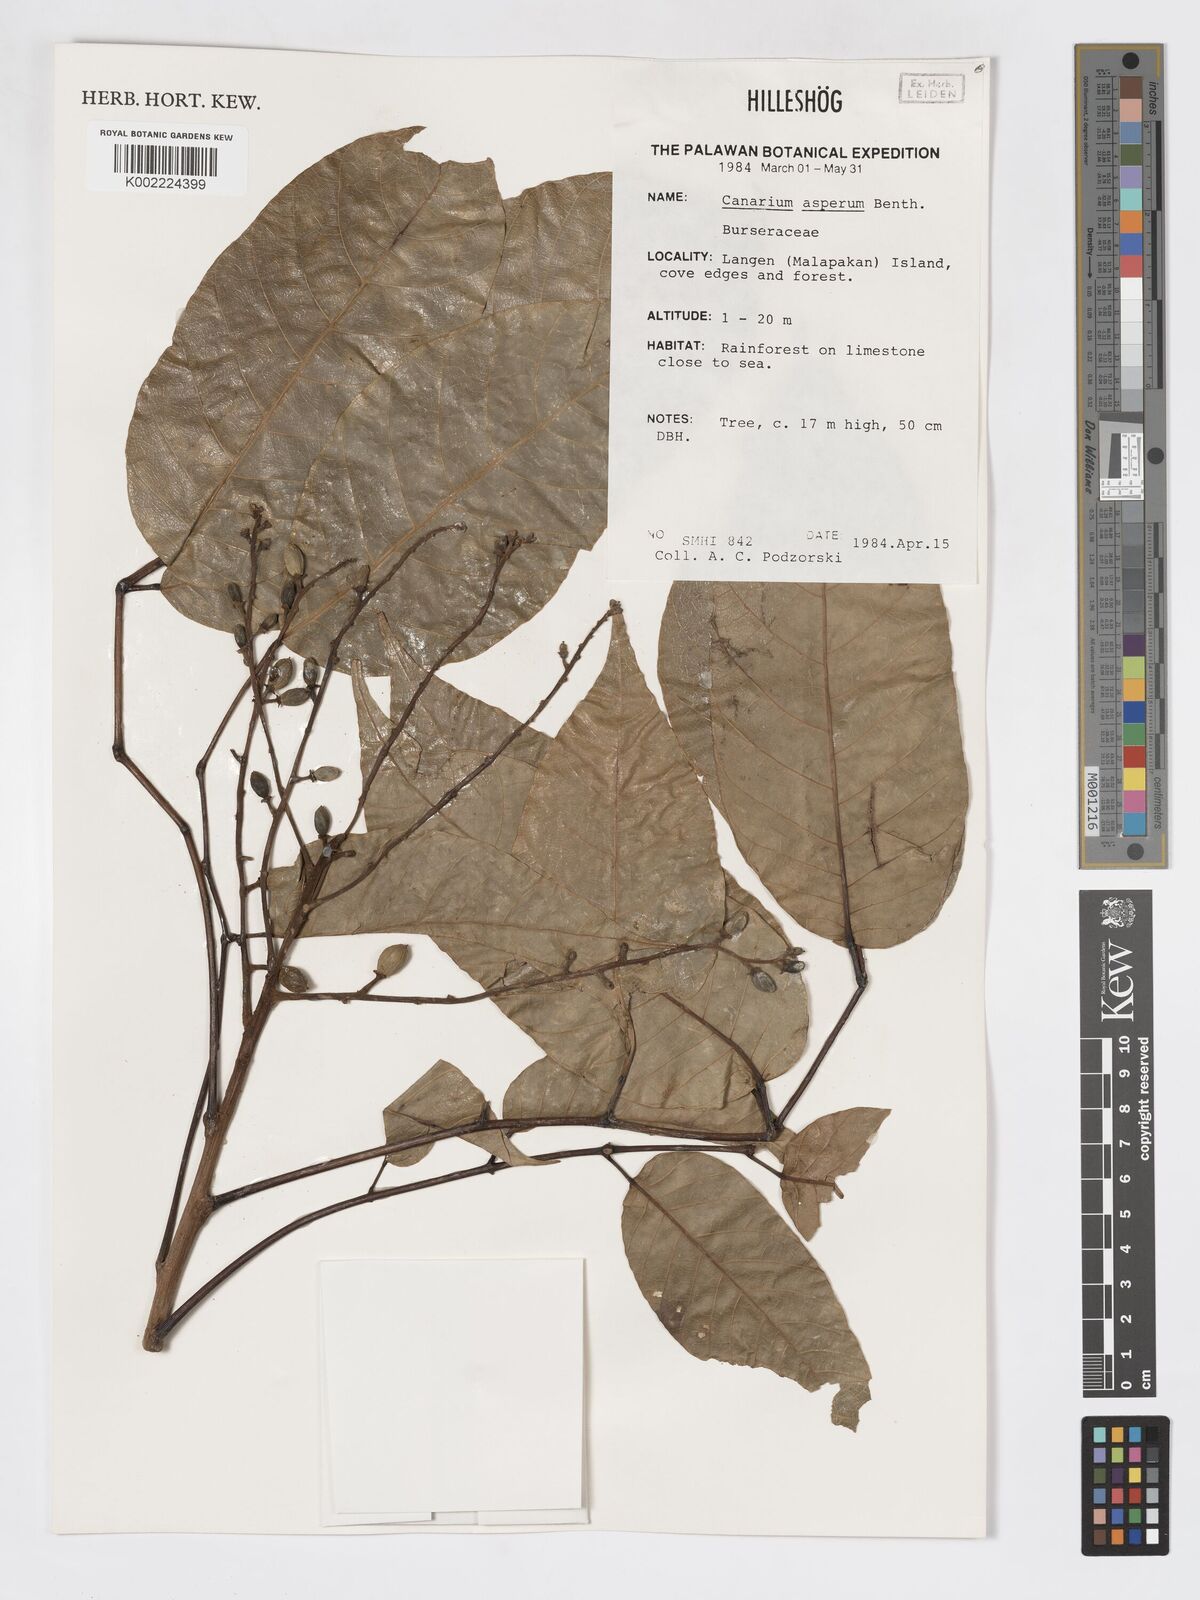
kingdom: Plantae
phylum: Tracheophyta
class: Magnoliopsida
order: Sapindales
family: Burseraceae
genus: Canarium
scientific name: Canarium asperum
